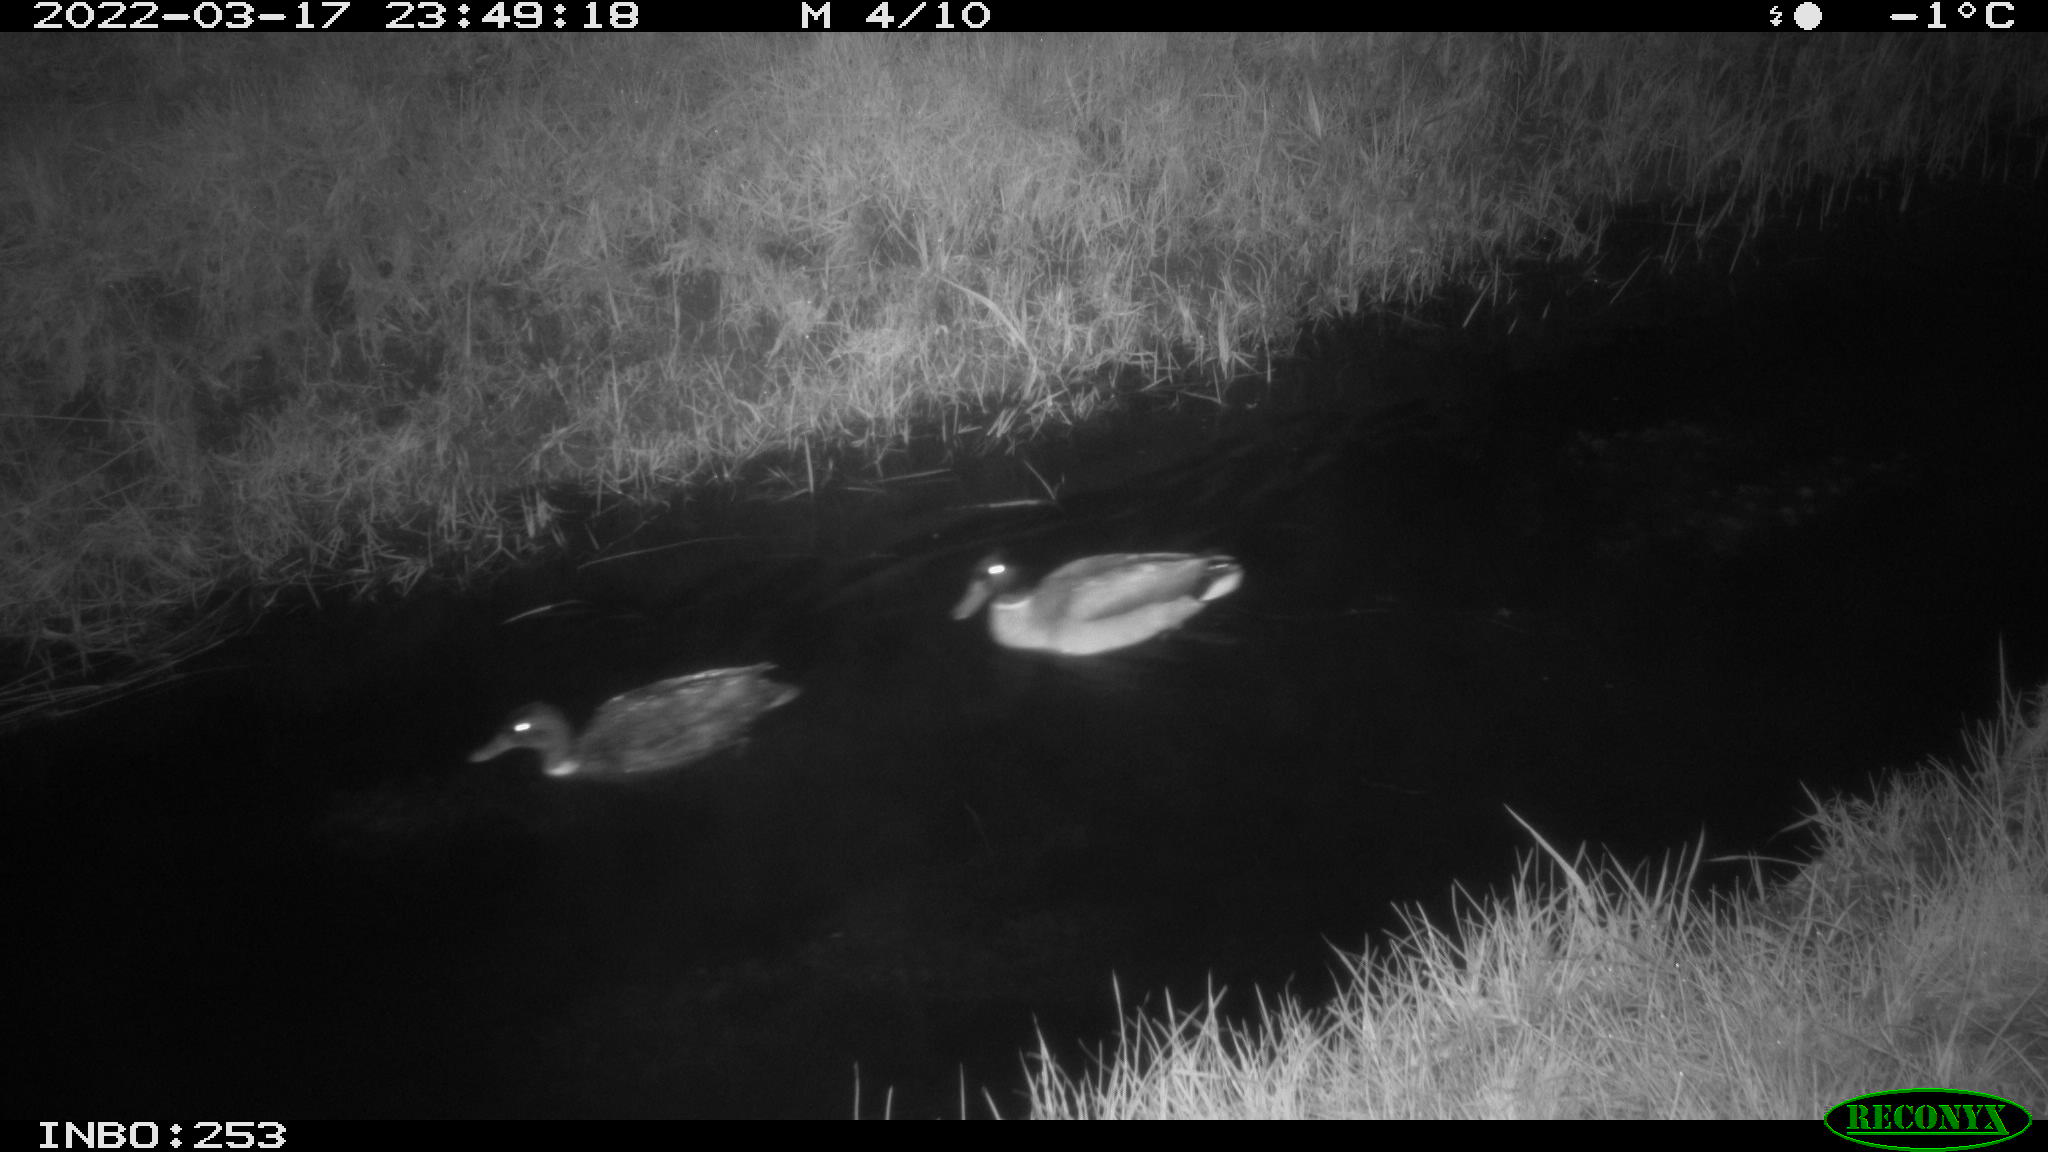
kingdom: Animalia
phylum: Chordata
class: Aves
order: Anseriformes
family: Anatidae
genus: Anas
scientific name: Anas platyrhynchos
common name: Mallard
